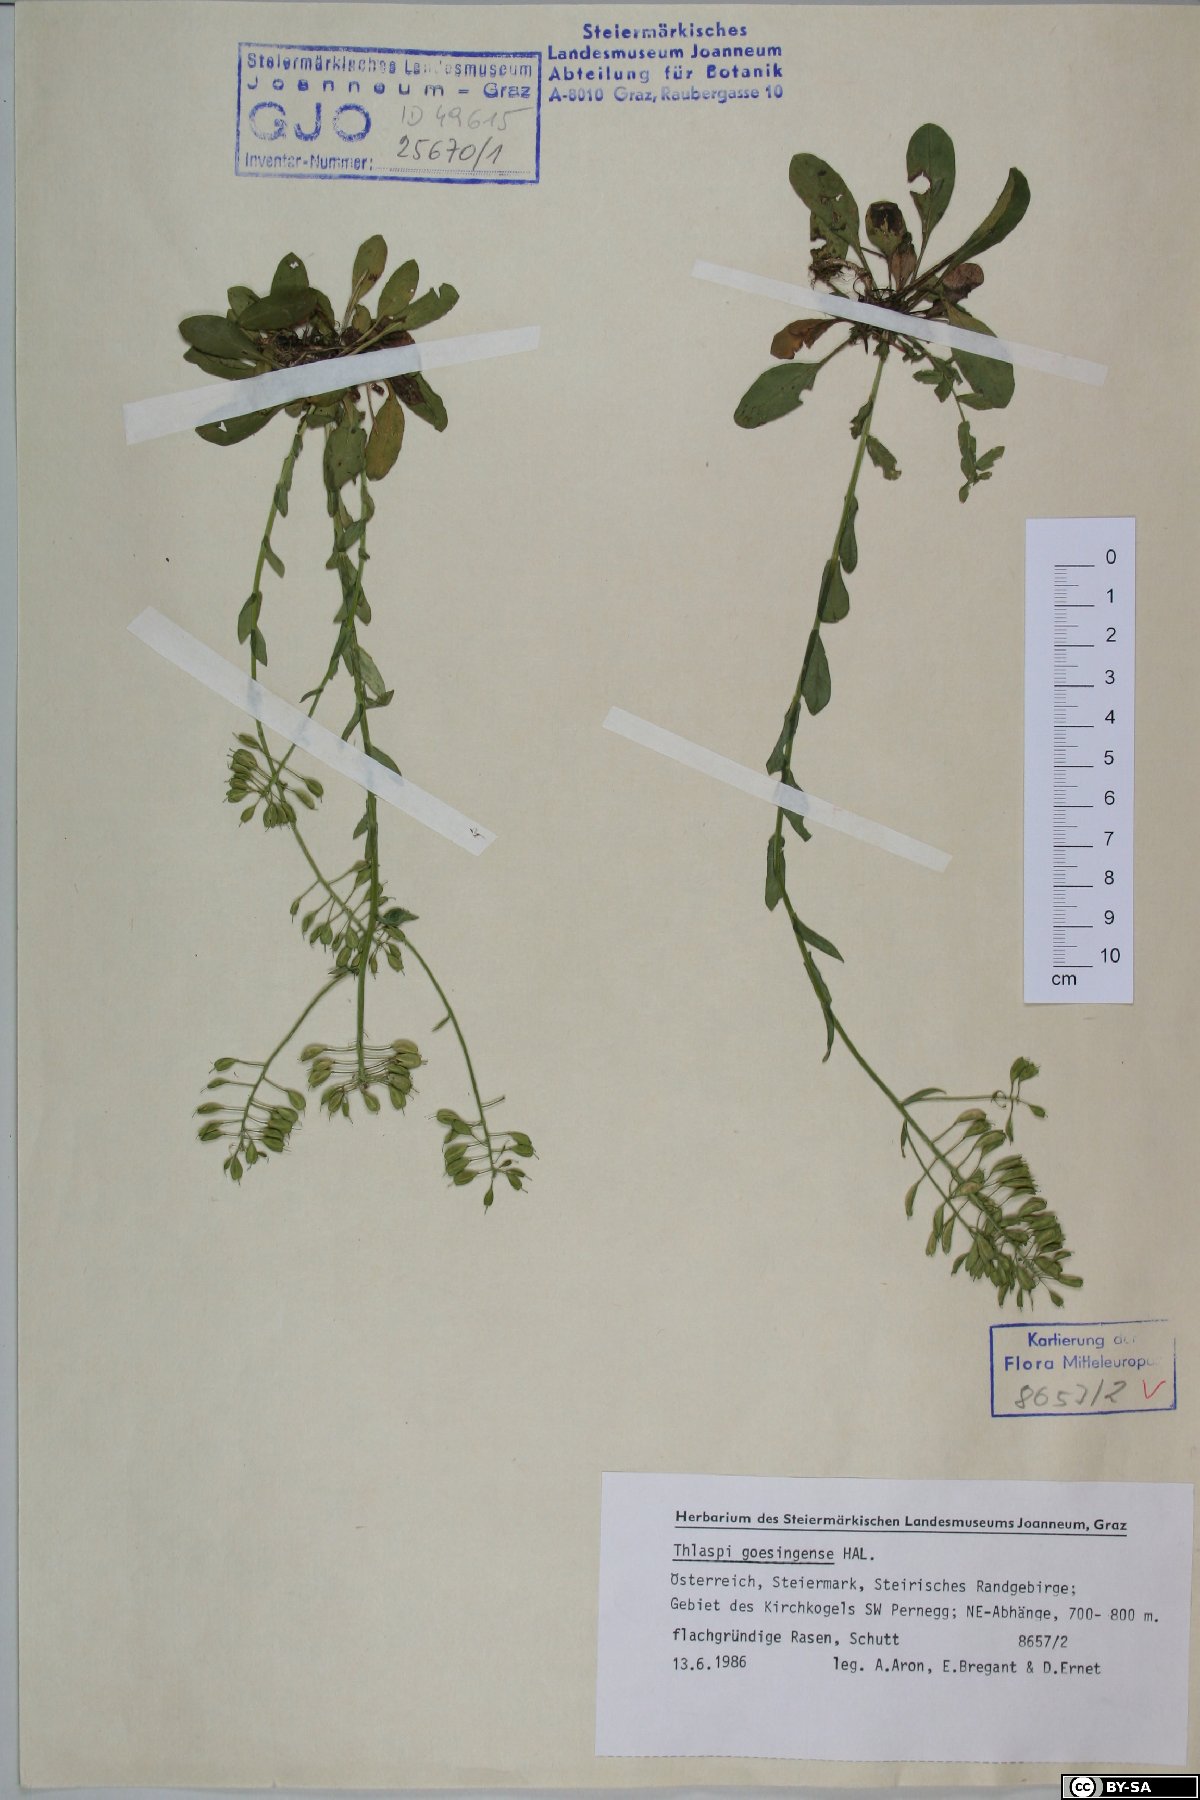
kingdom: Plantae
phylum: Tracheophyta
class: Magnoliopsida
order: Brassicales
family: Brassicaceae
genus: Noccaea
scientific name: Noccaea goesingensis
